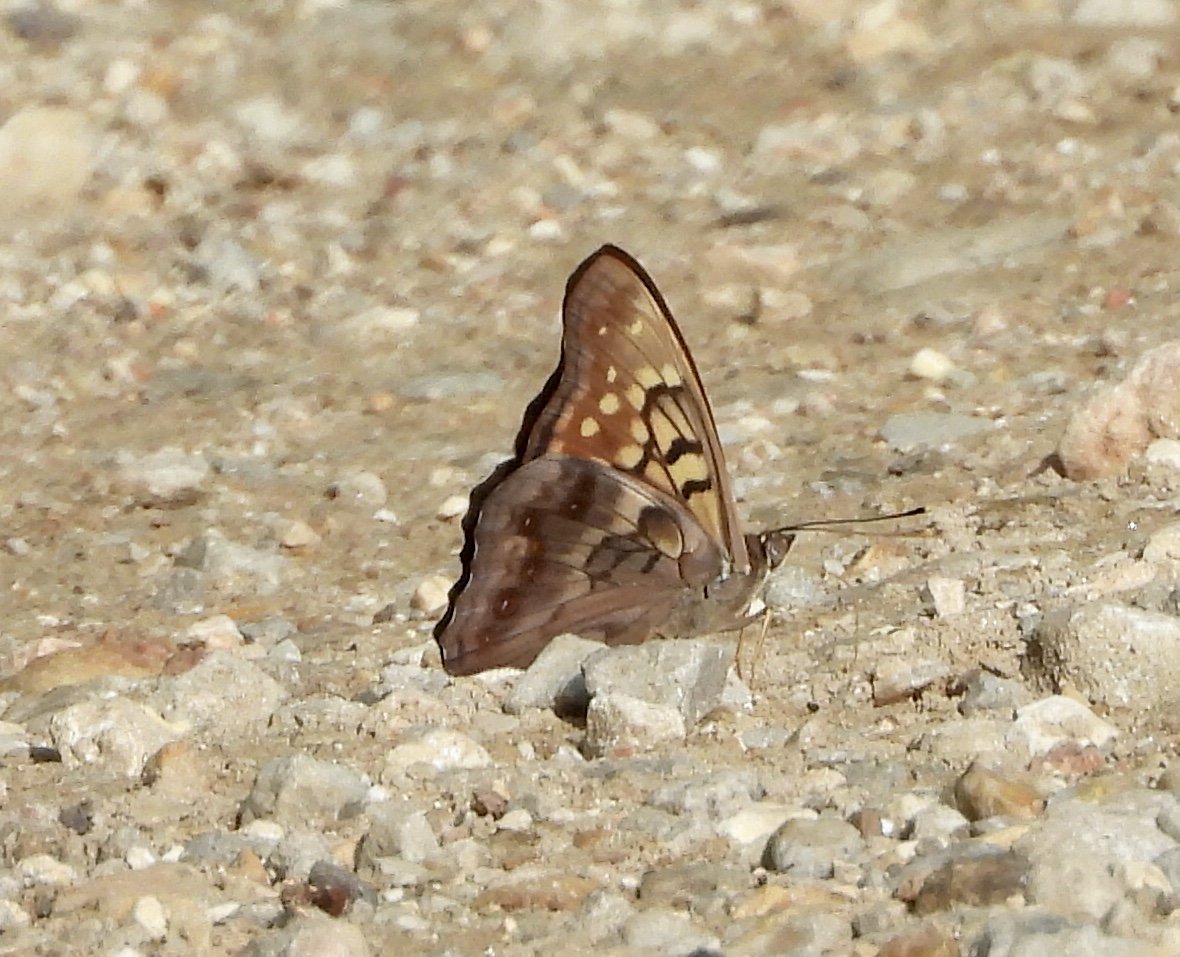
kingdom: Animalia
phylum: Arthropoda
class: Insecta
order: Lepidoptera
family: Nymphalidae
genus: Asterocampa
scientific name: Asterocampa clyton
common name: Tawny Emperor
